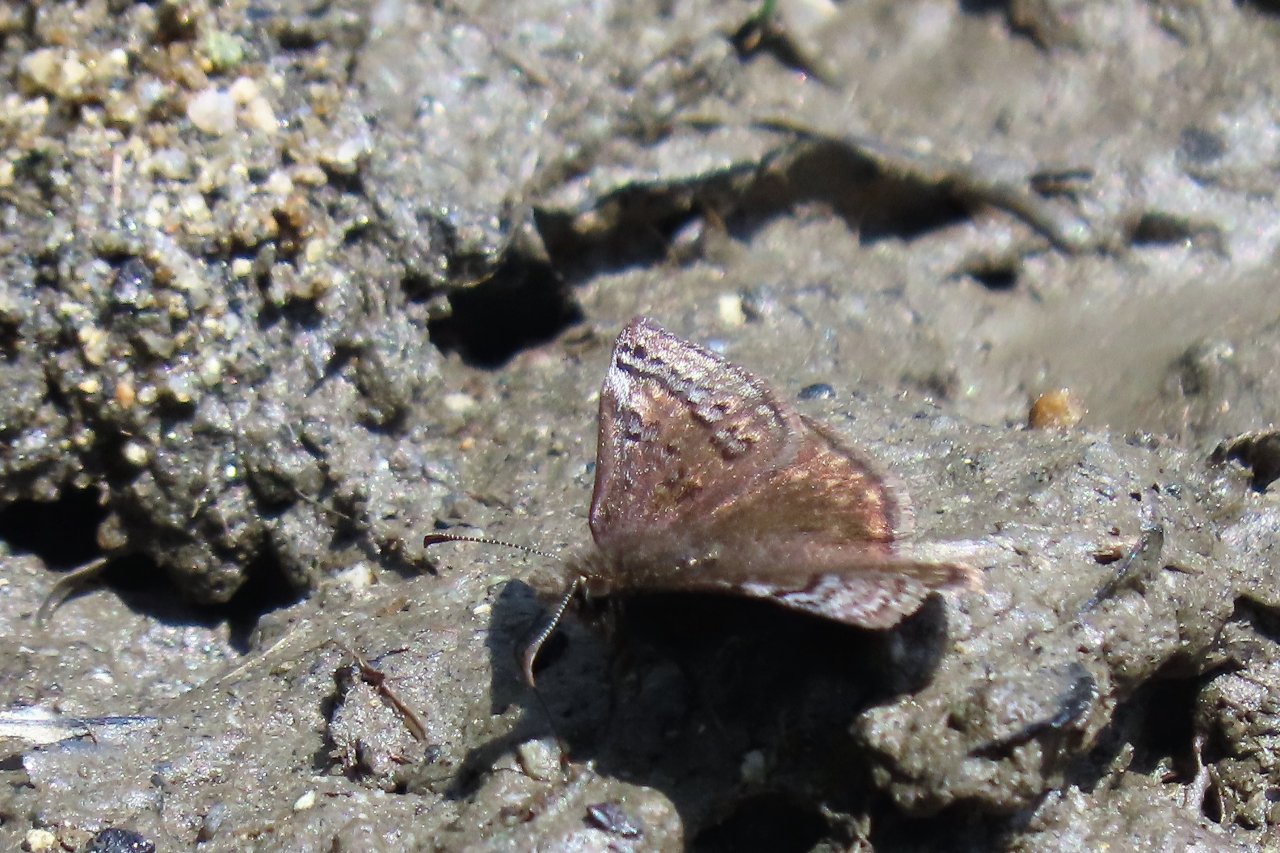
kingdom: Animalia
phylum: Arthropoda
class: Insecta
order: Lepidoptera
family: Hesperiidae
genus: Erynnis
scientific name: Erynnis icelus
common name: Dreamy Duskywing
